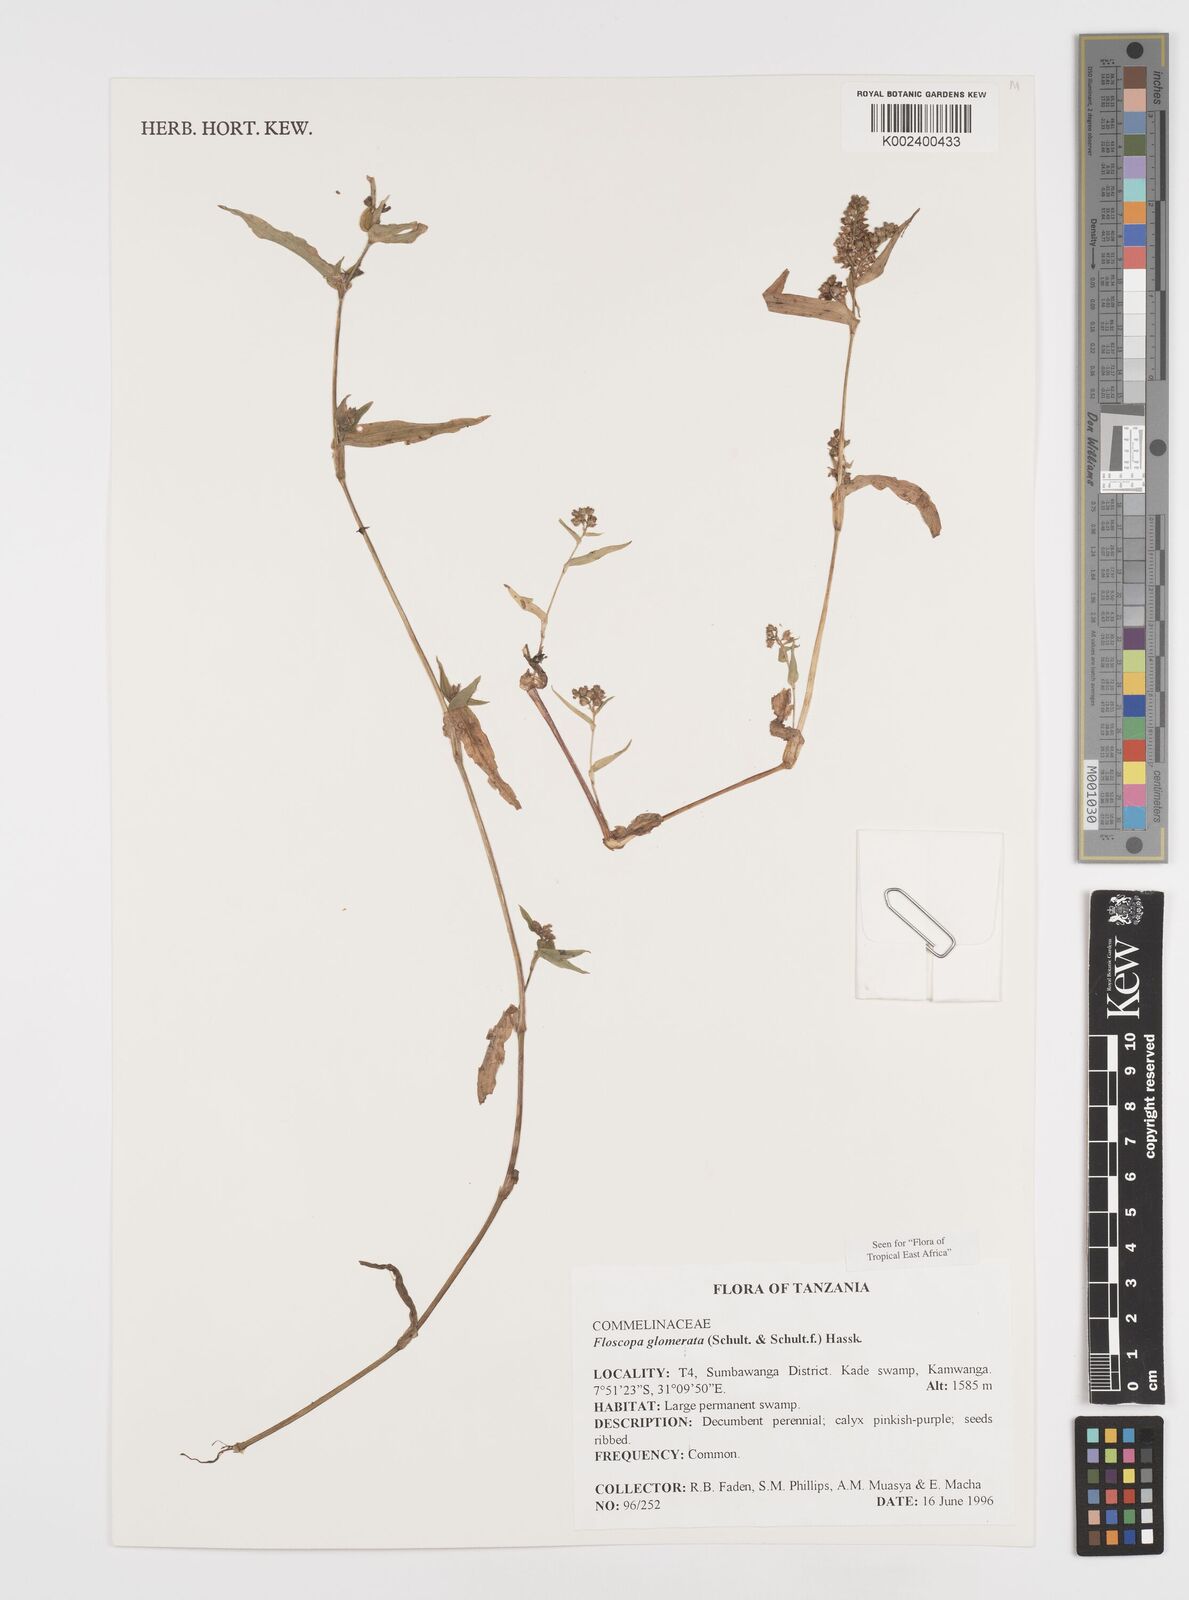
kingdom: Plantae
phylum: Tracheophyta
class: Liliopsida
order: Commelinales
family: Commelinaceae
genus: Floscopa
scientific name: Floscopa glomerata
